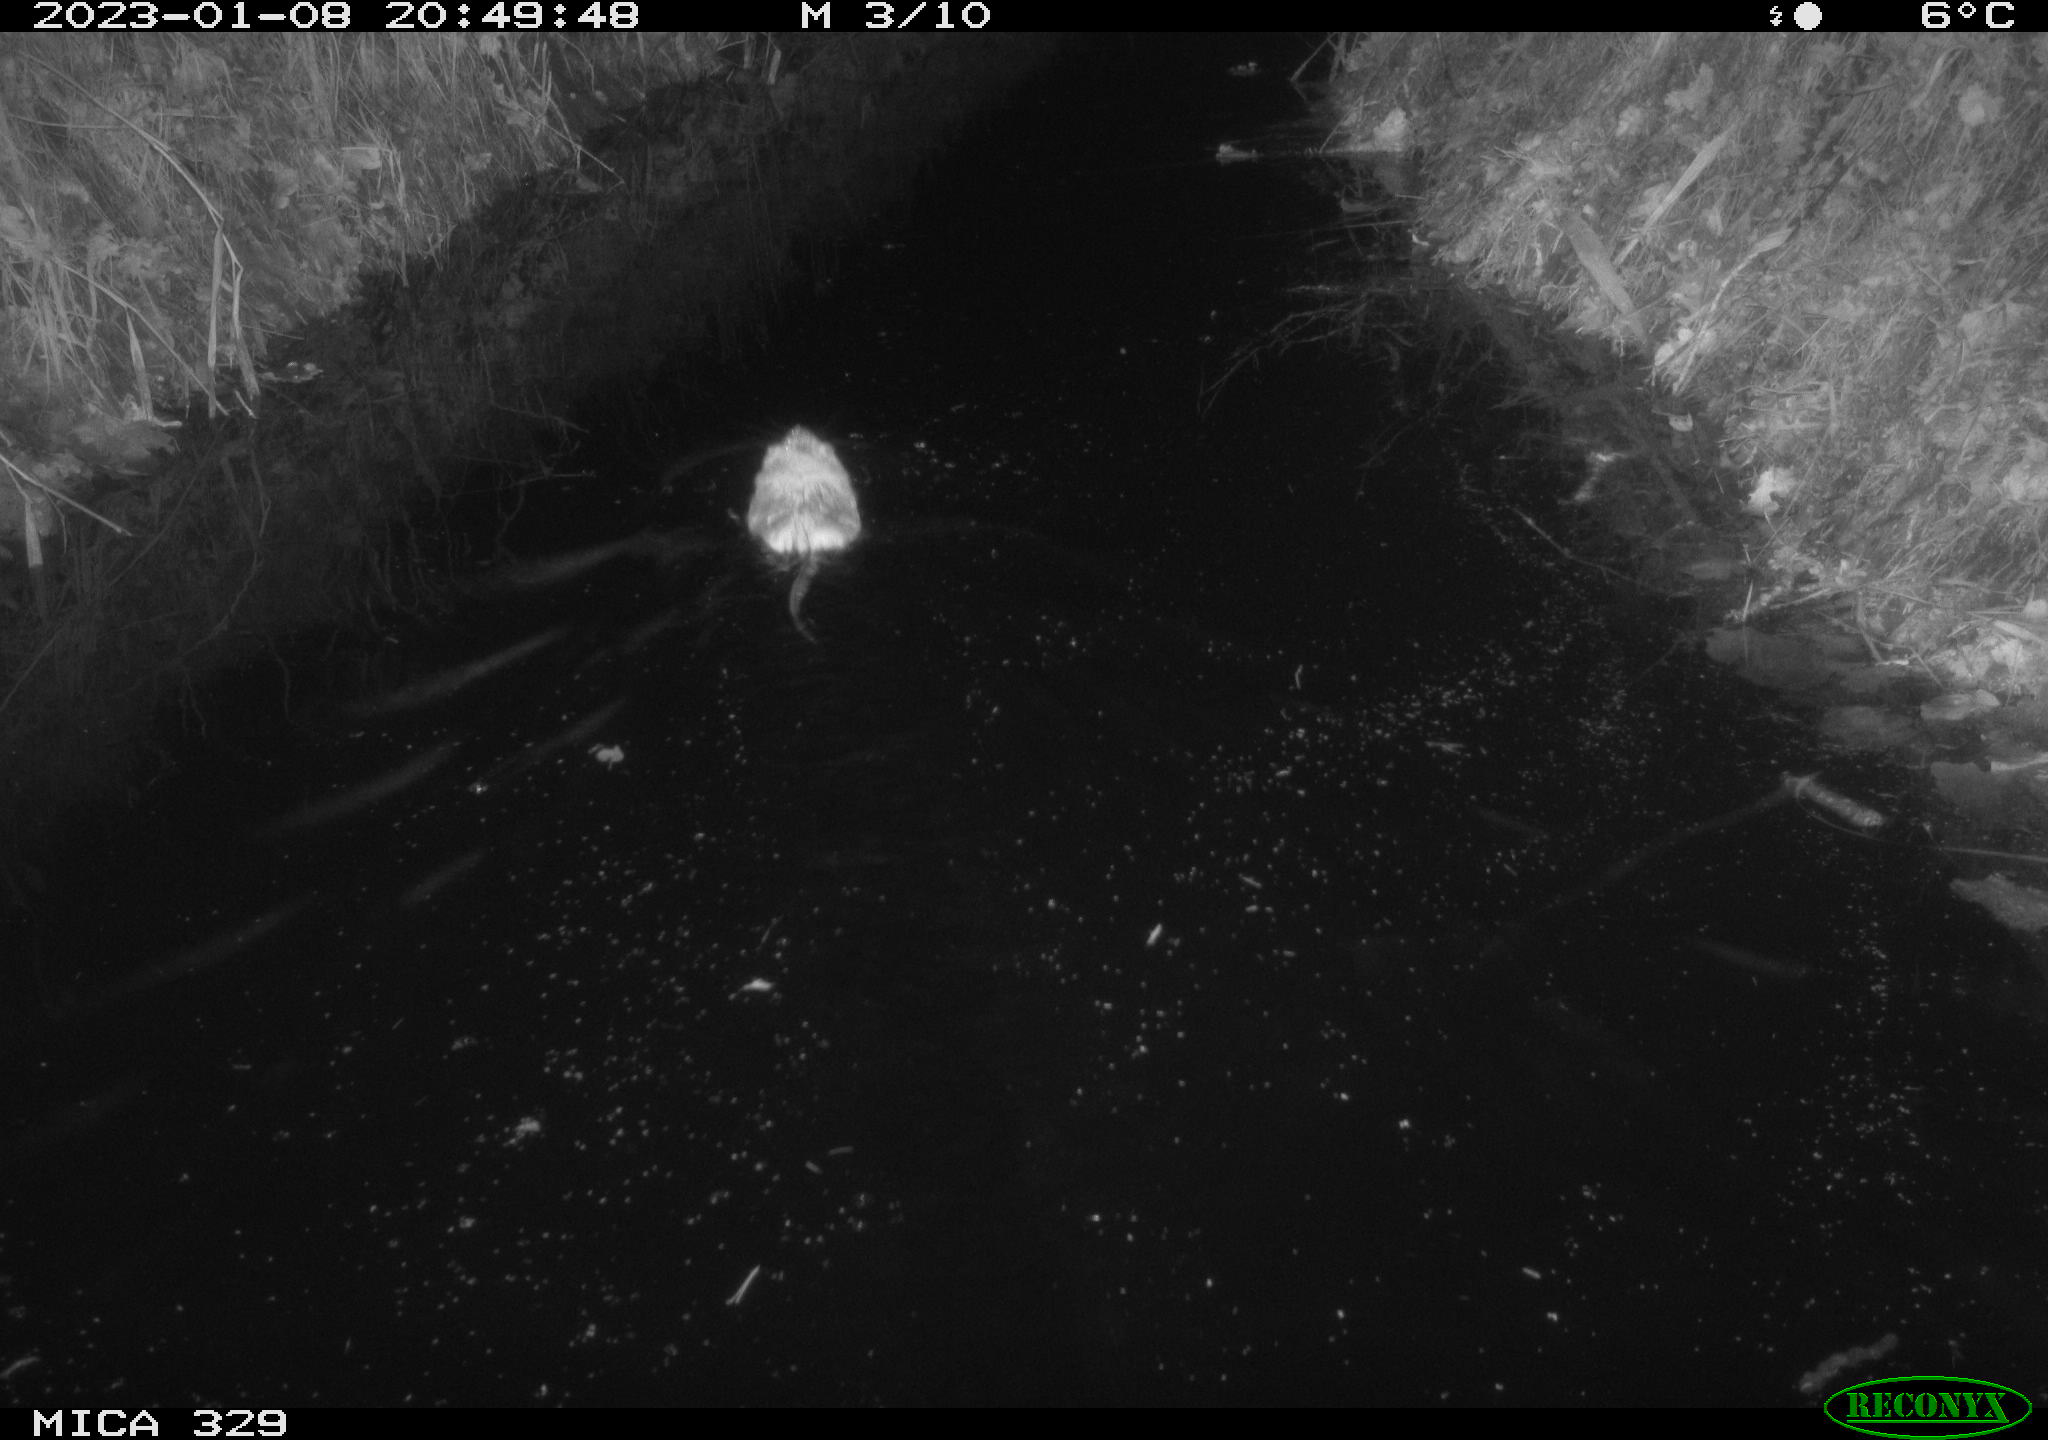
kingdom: Animalia
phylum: Chordata
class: Mammalia
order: Rodentia
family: Cricetidae
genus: Ondatra
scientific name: Ondatra zibethicus
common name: Muskrat
